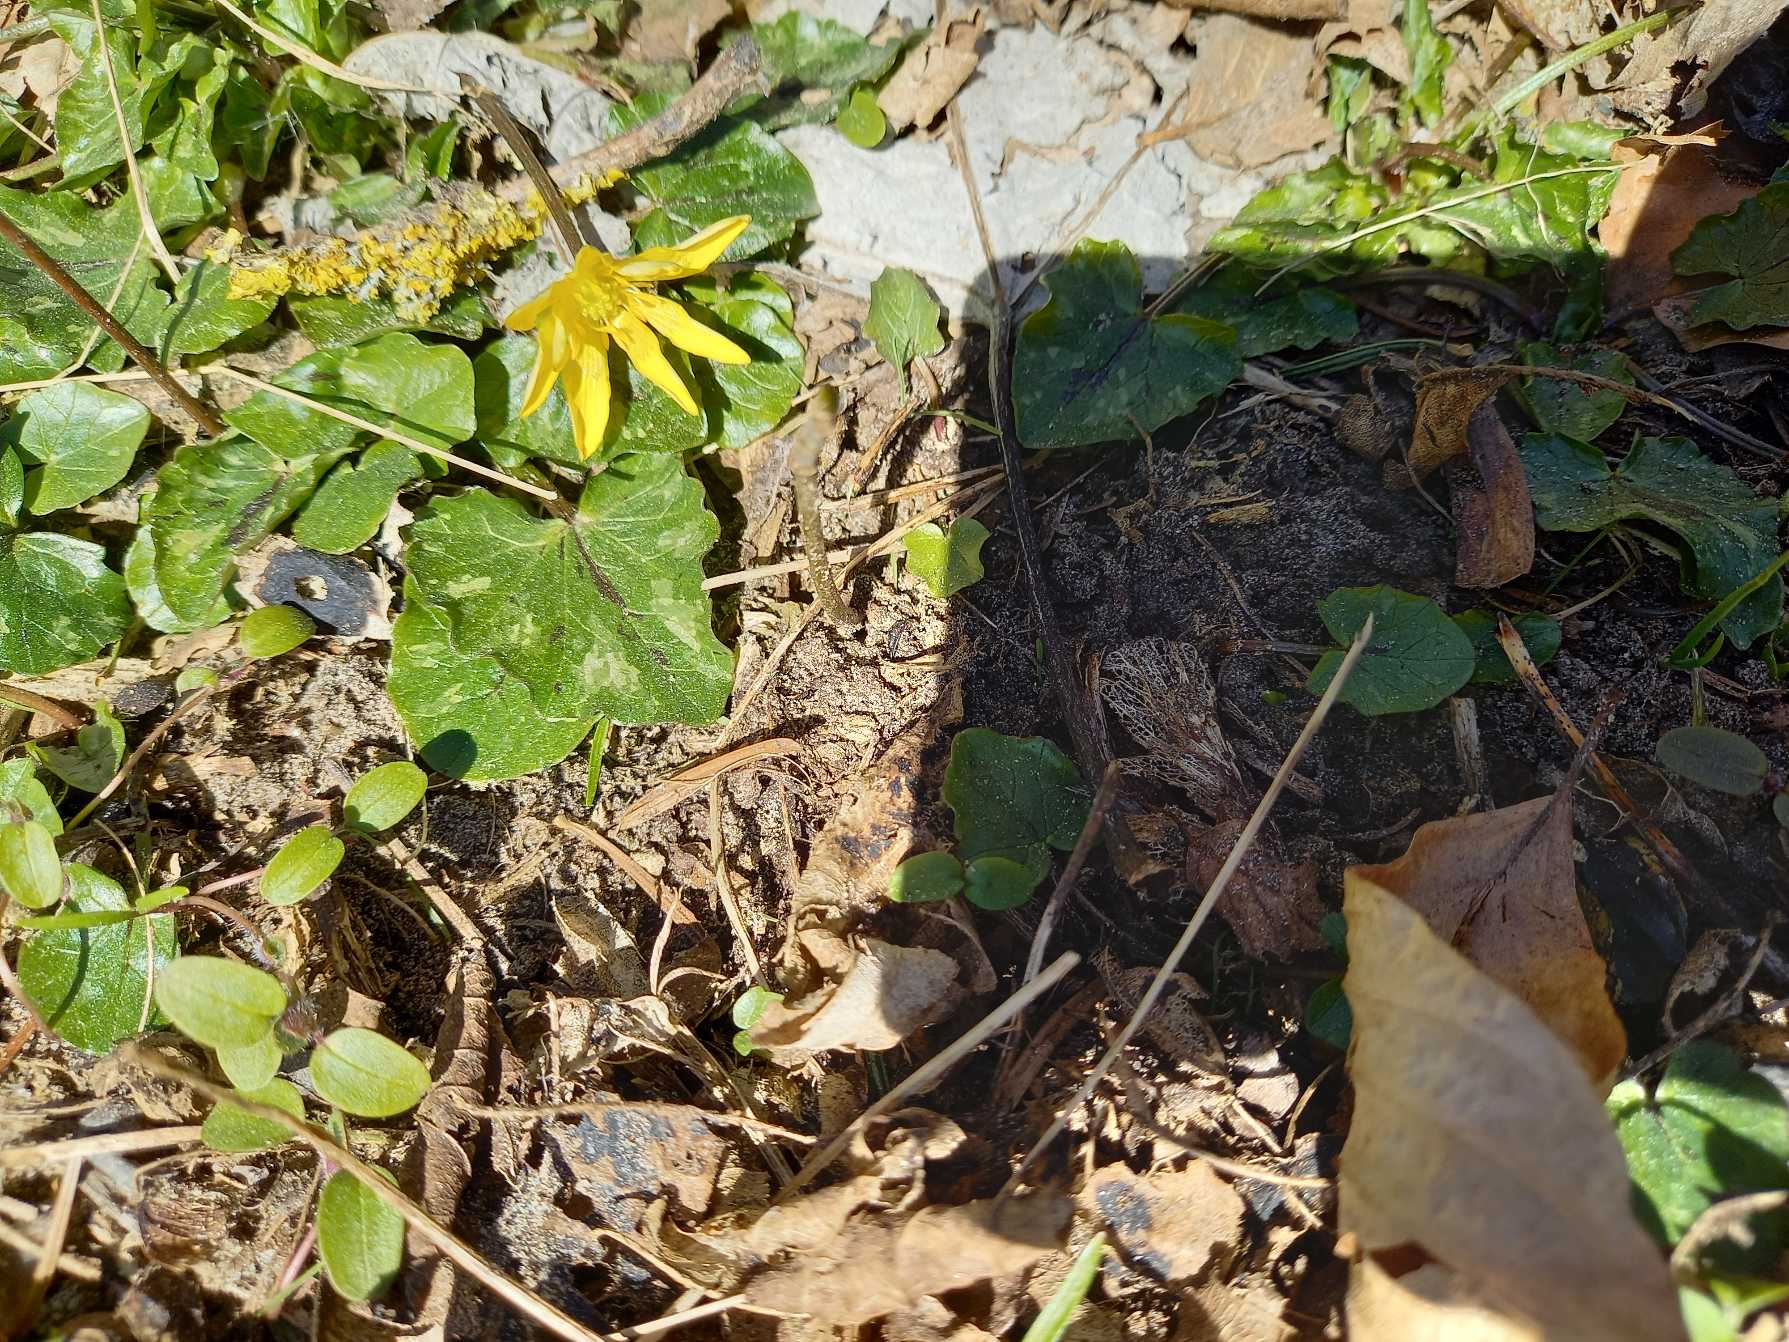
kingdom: Plantae
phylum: Tracheophyta
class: Magnoliopsida
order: Ranunculales
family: Ranunculaceae
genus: Ficaria
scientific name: Ficaria verna
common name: Vorterod
